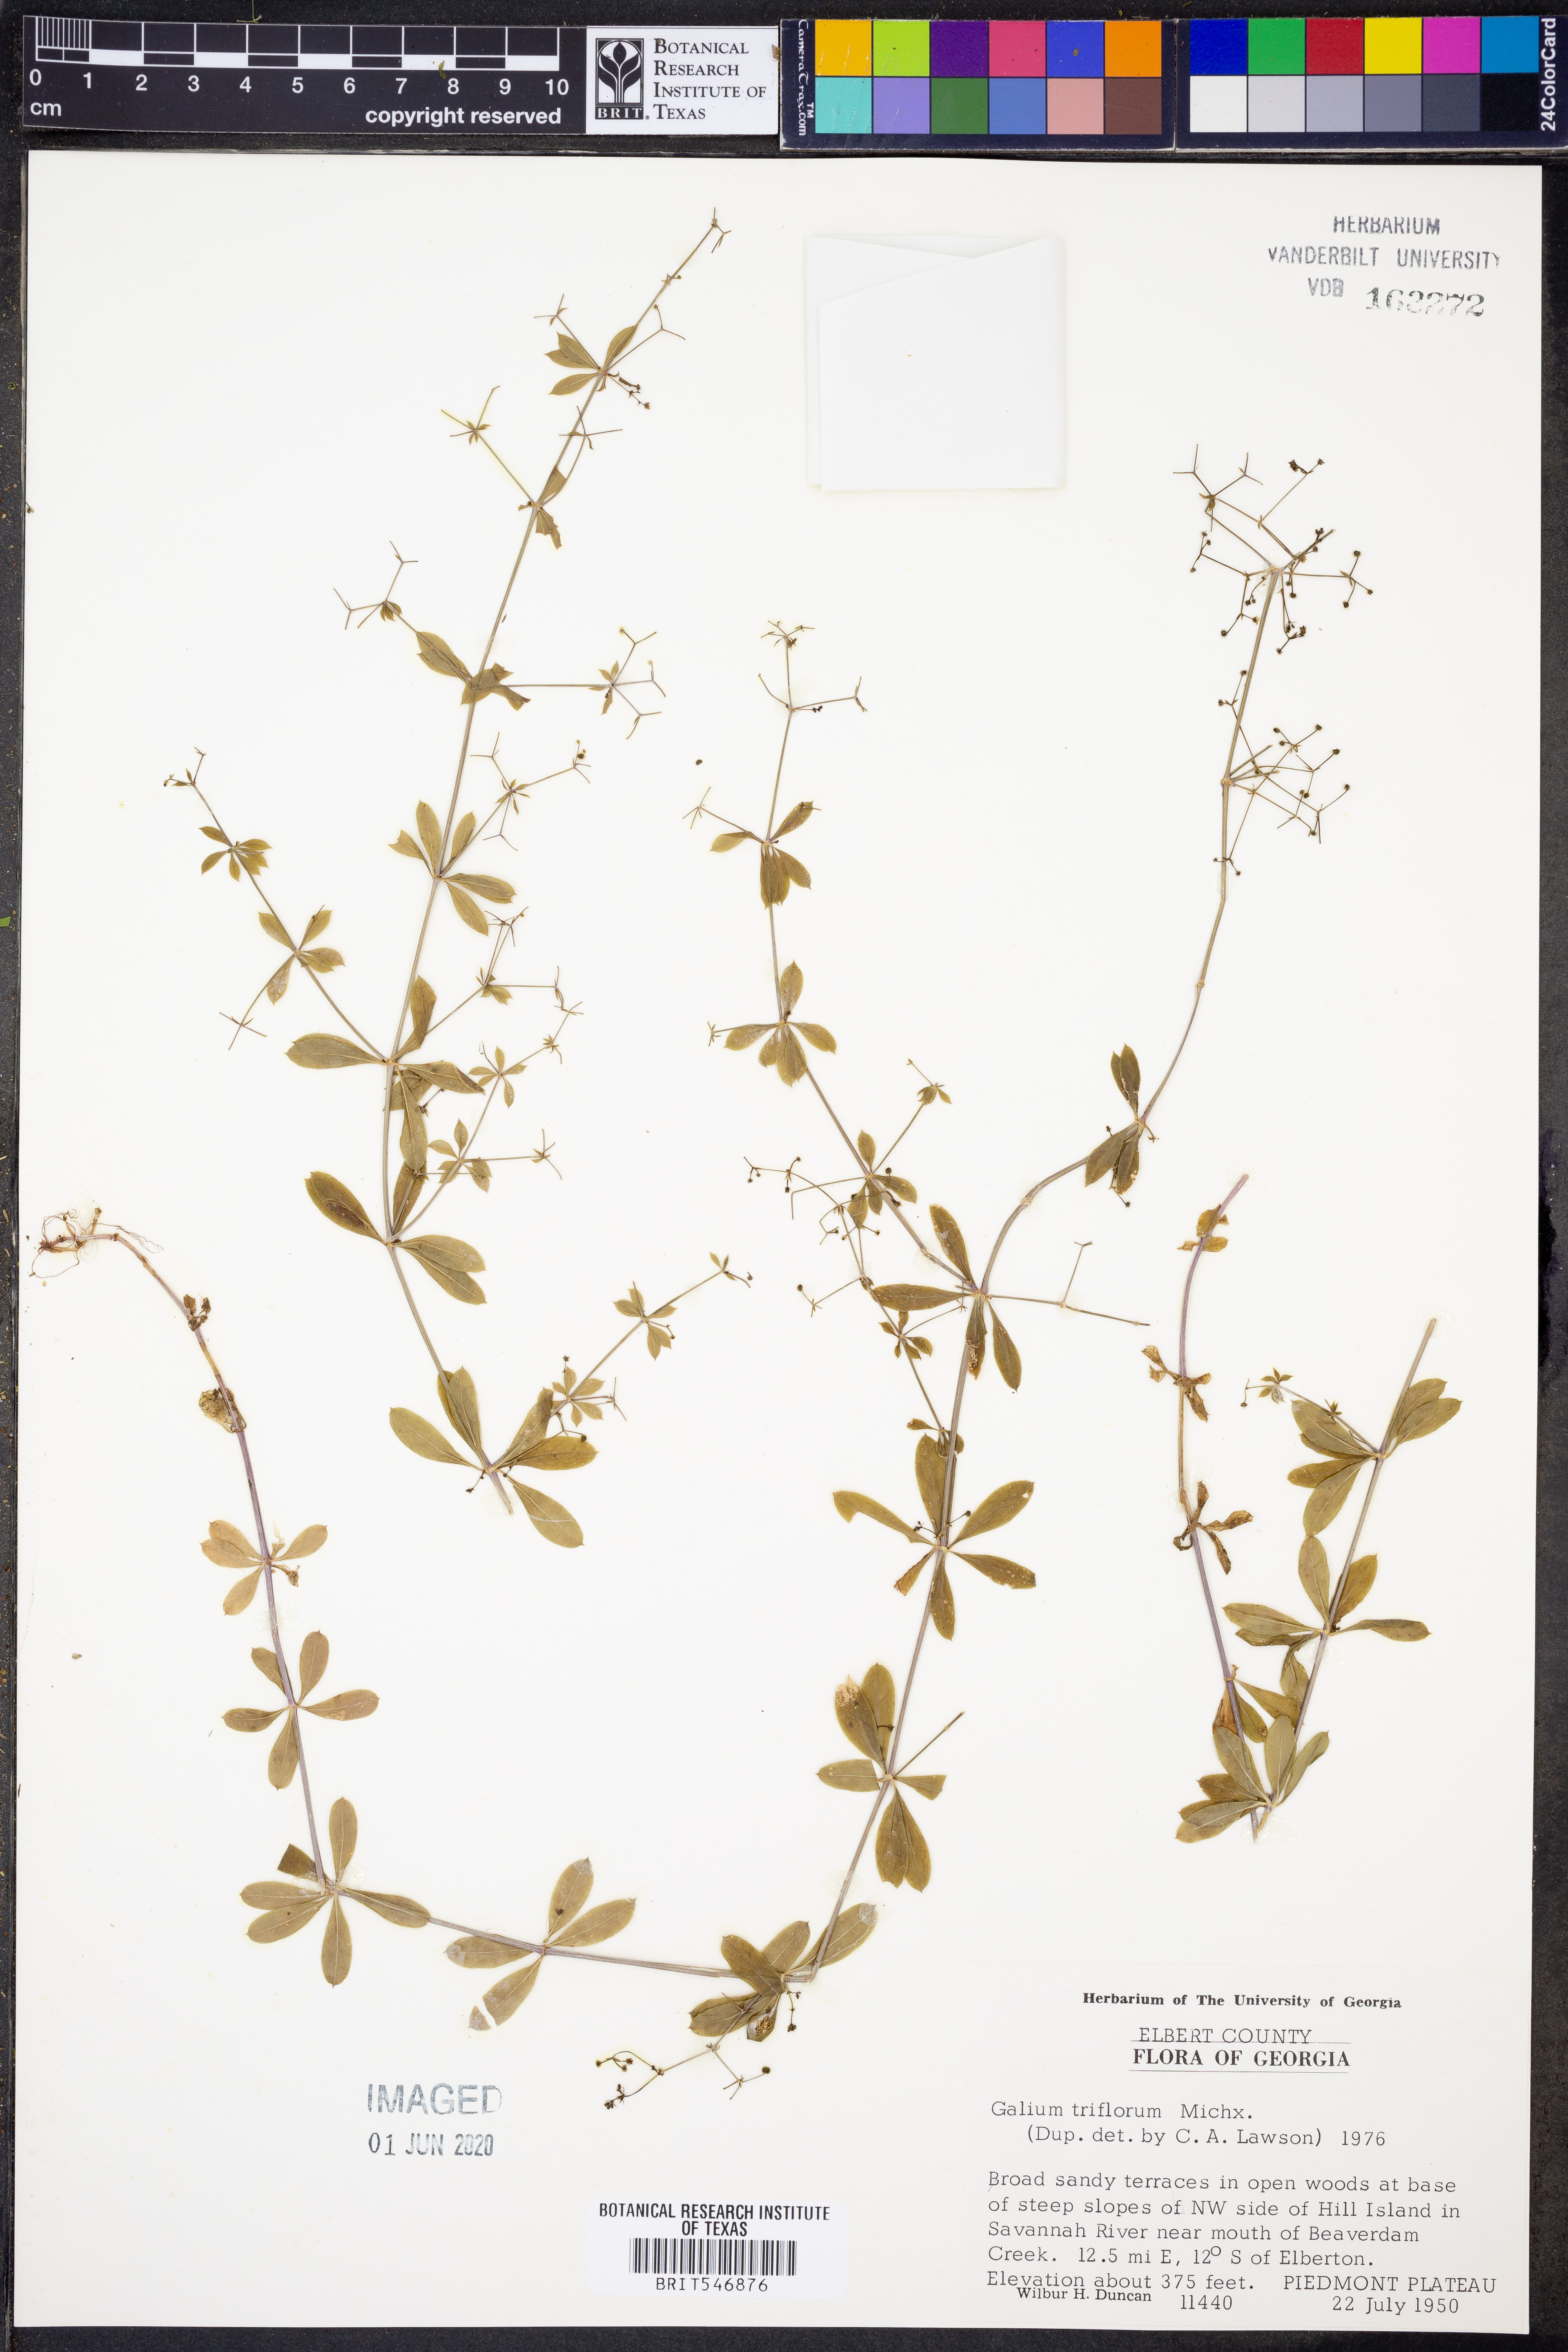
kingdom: Plantae
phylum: Tracheophyta
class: Magnoliopsida
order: Gentianales
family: Rubiaceae
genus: Galium
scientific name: Galium triflorum
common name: Fragrant bedstraw
